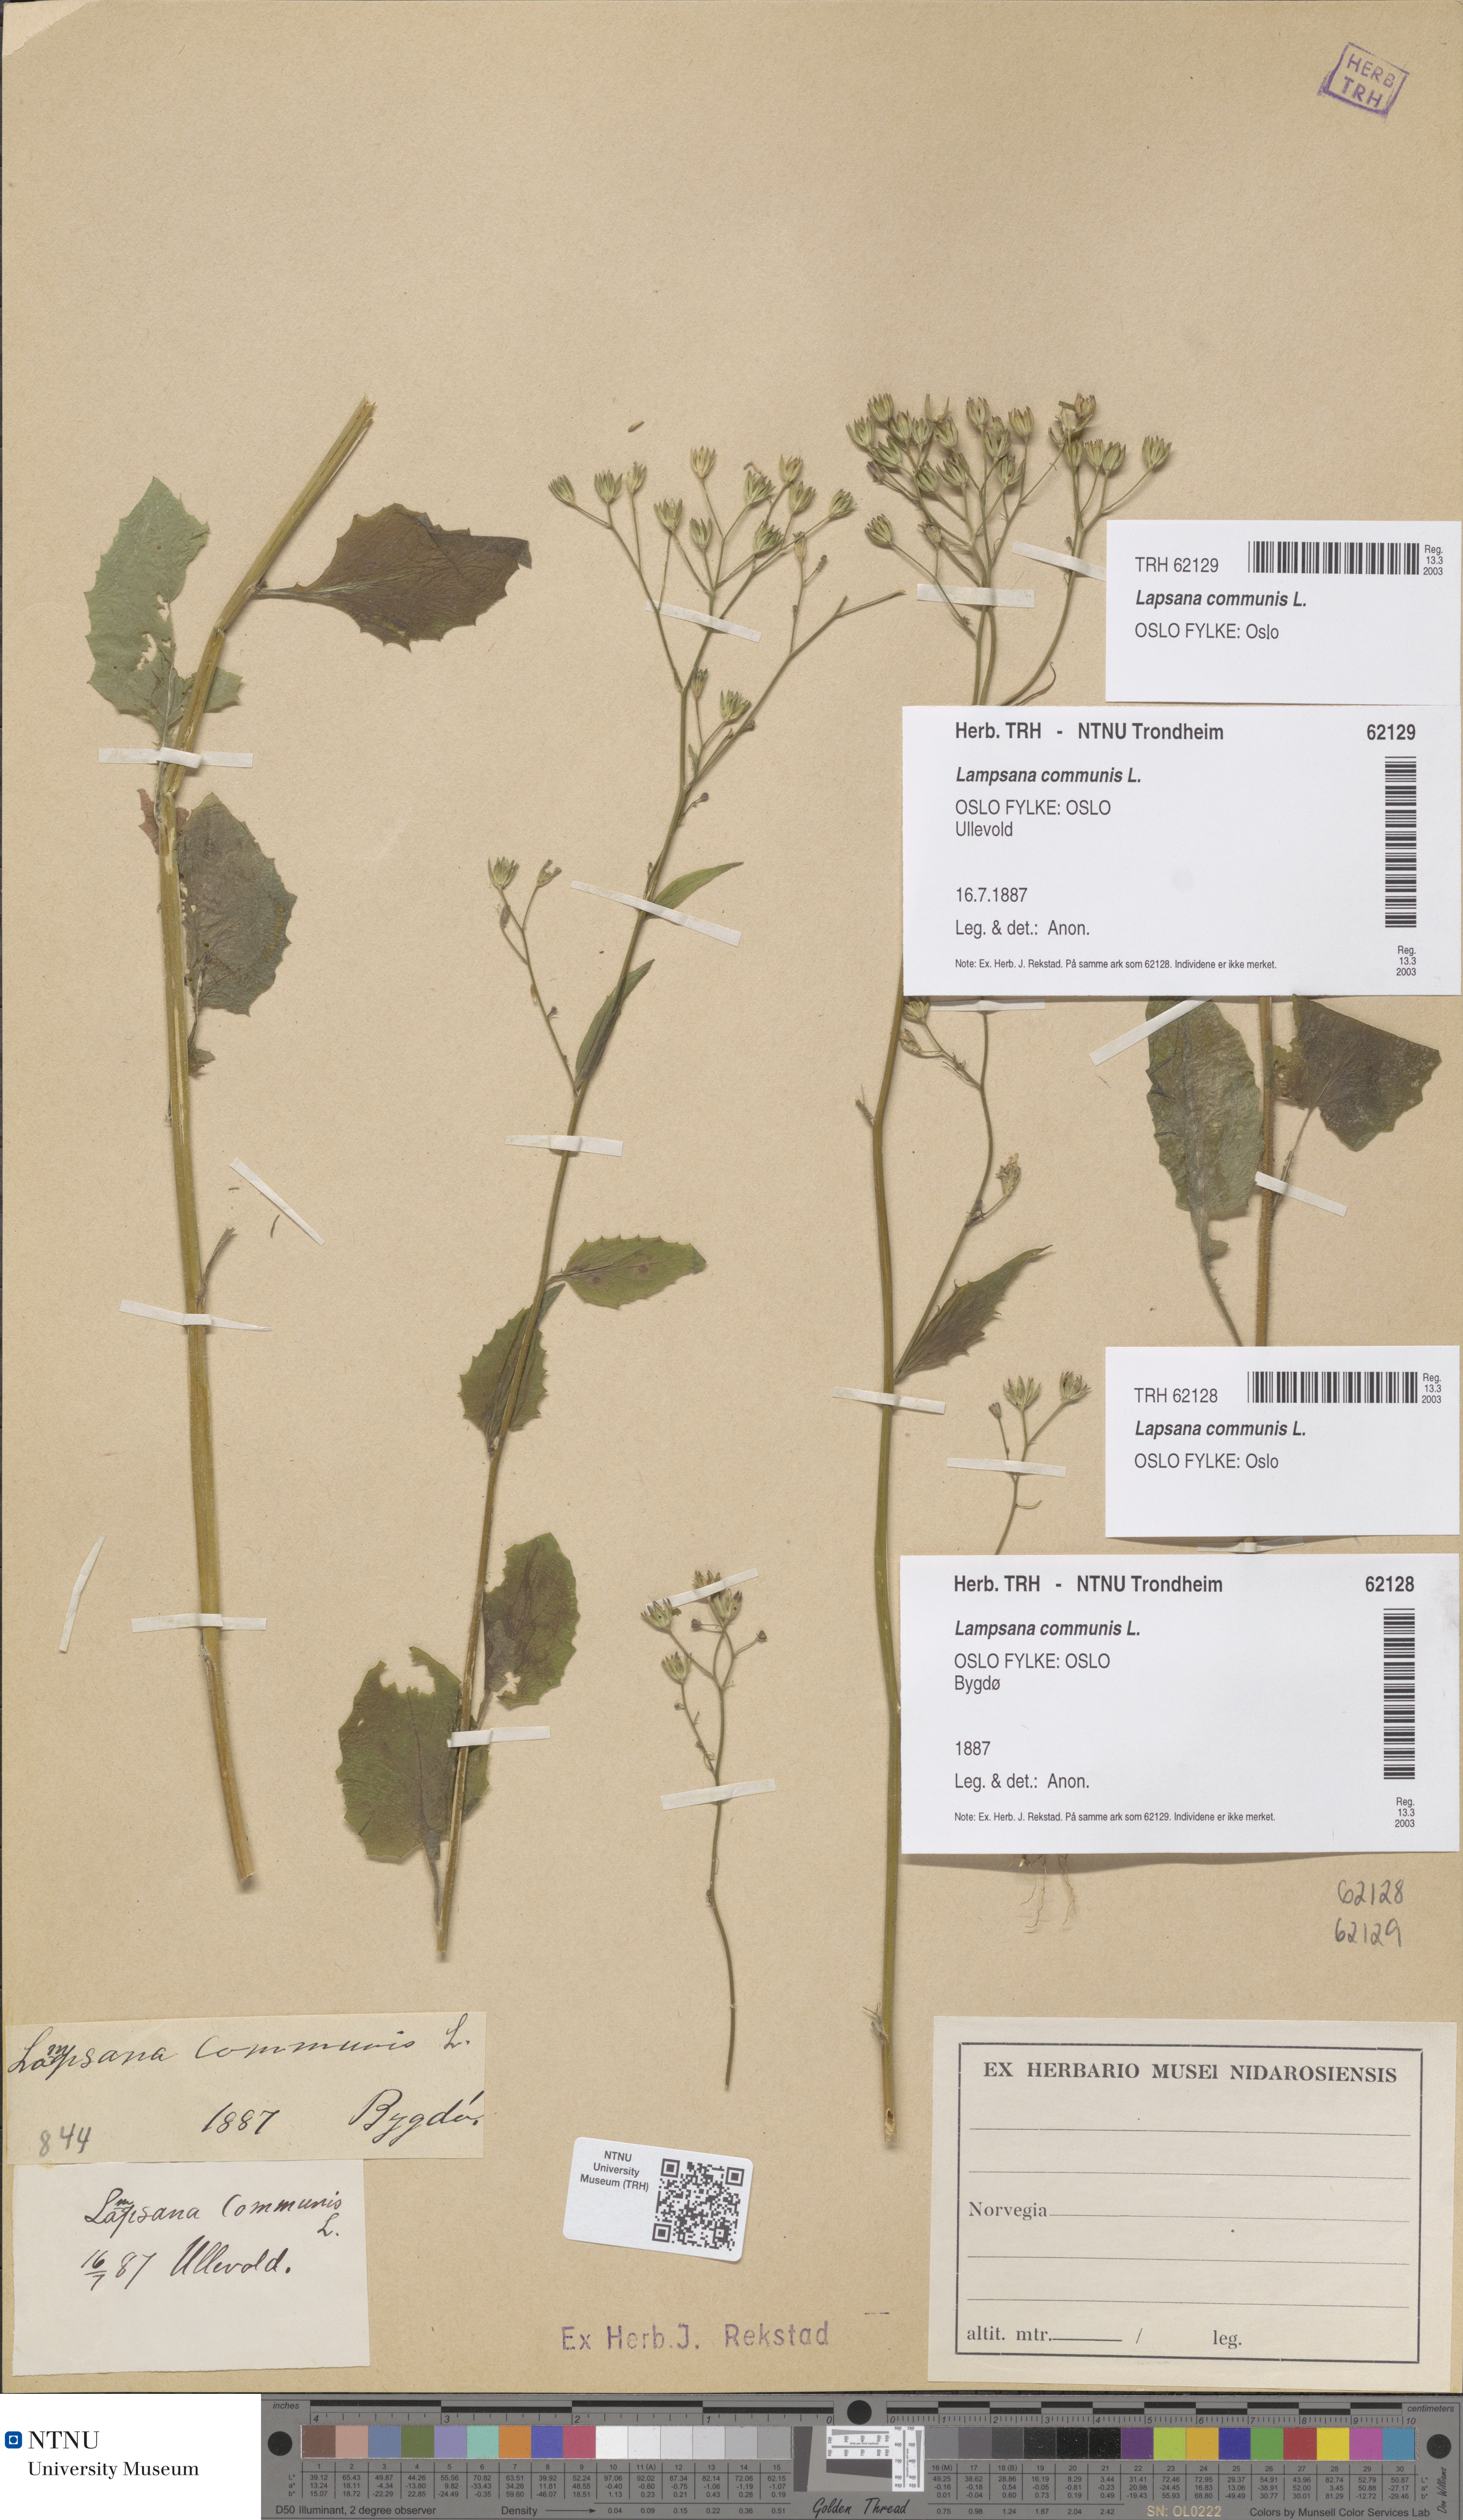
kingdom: Plantae
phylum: Tracheophyta
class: Magnoliopsida
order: Asterales
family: Asteraceae
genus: Lapsana
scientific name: Lapsana communis
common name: Nipplewort
